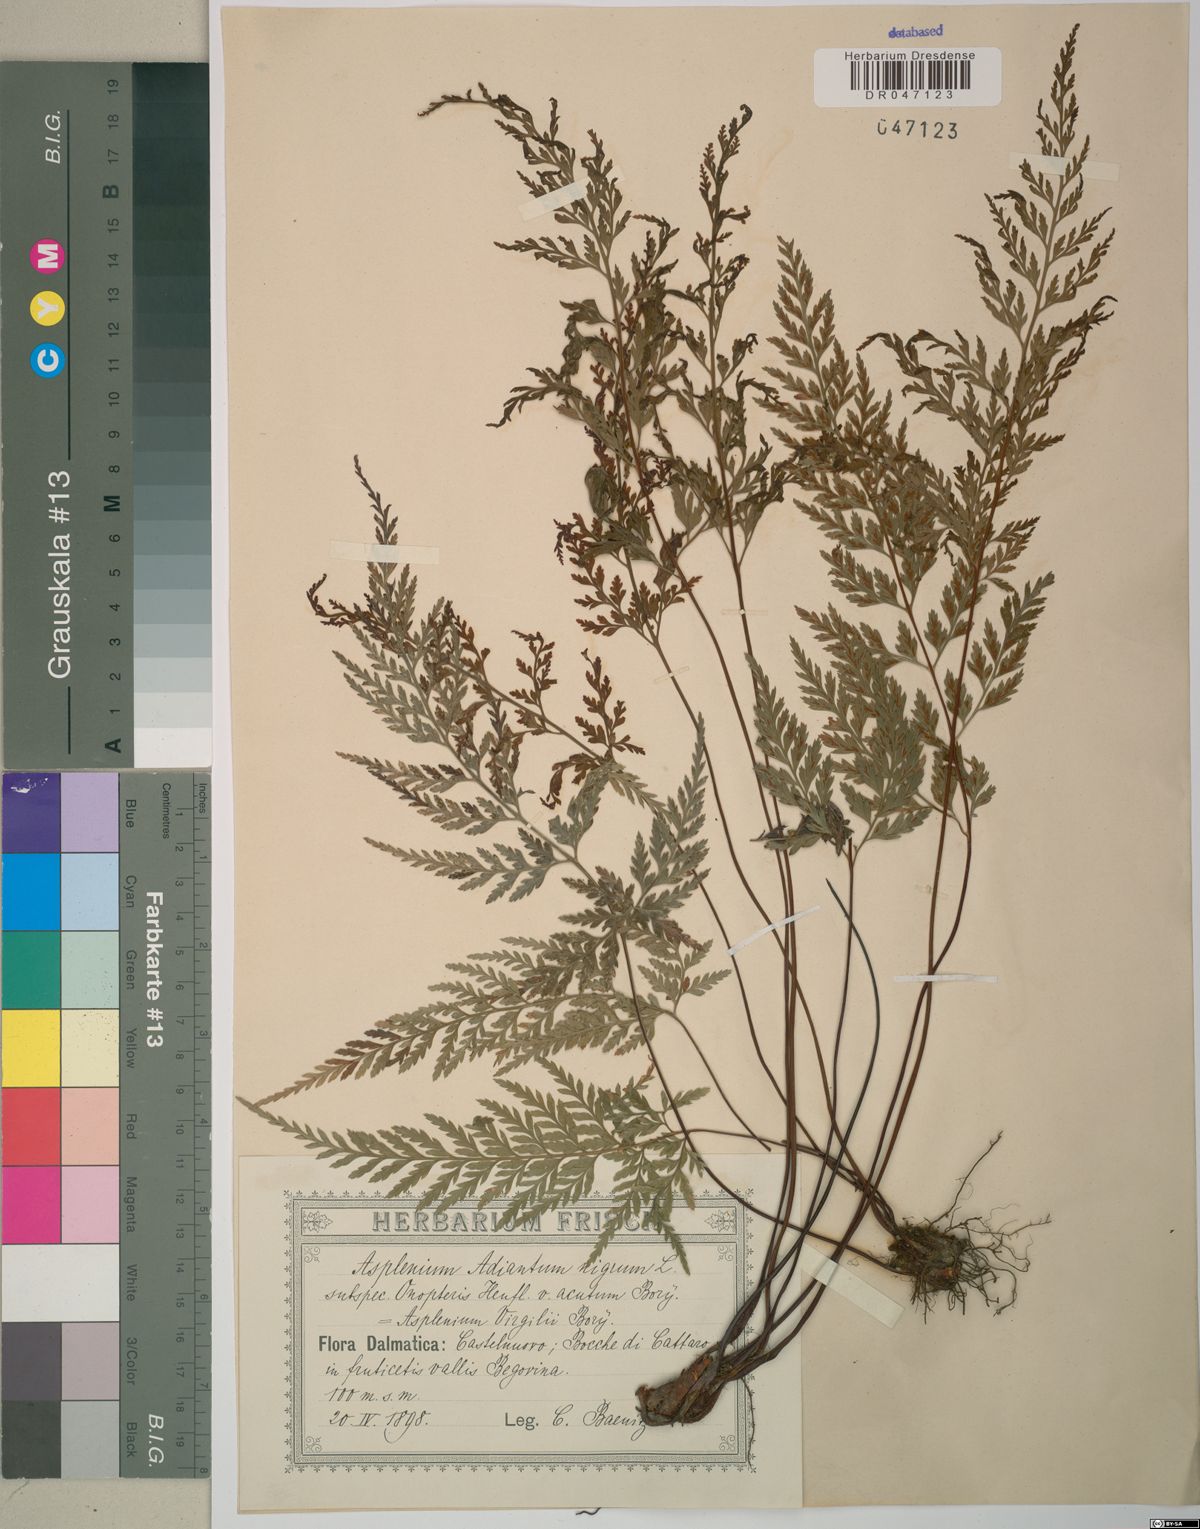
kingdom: Plantae
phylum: Tracheophyta
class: Polypodiopsida
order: Polypodiales
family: Aspleniaceae
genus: Asplenium
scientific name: Asplenium onopteris
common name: Irish spleenwort
